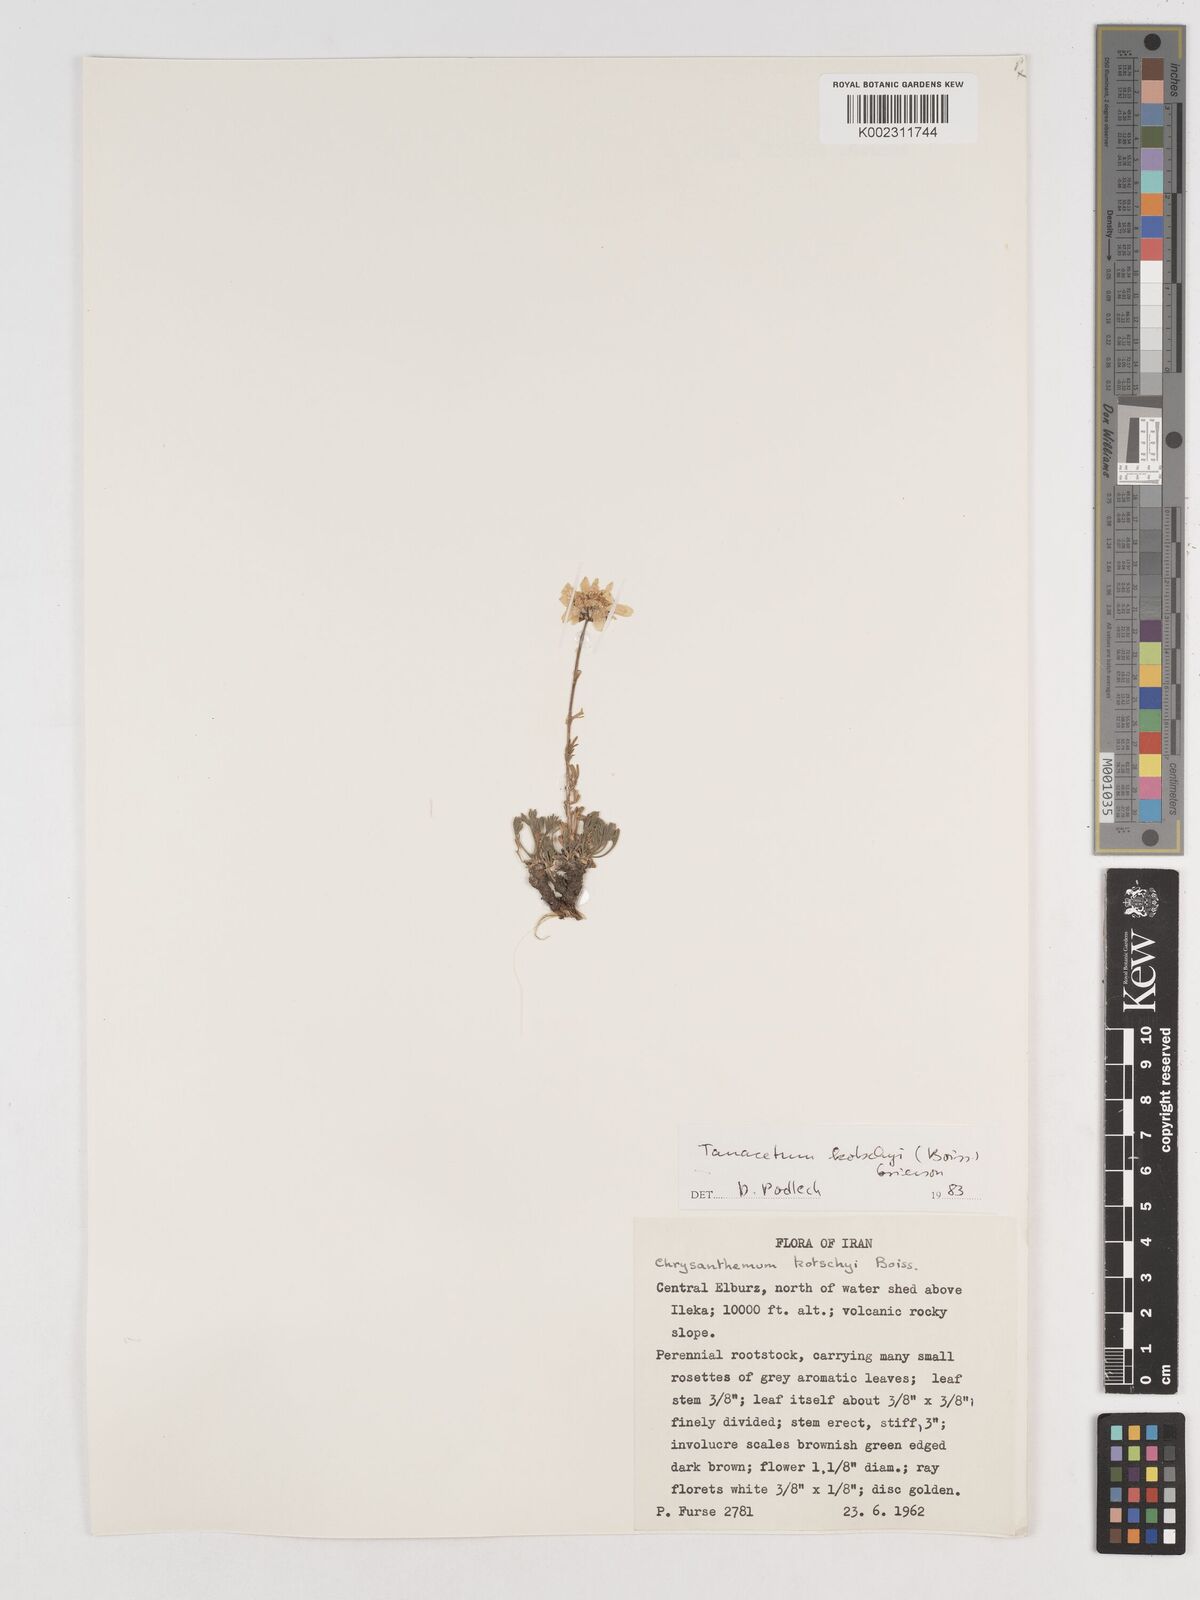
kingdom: Plantae
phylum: Tracheophyta
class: Magnoliopsida
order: Asterales
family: Asteraceae
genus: Tanacetum
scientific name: Tanacetum polycephalum
